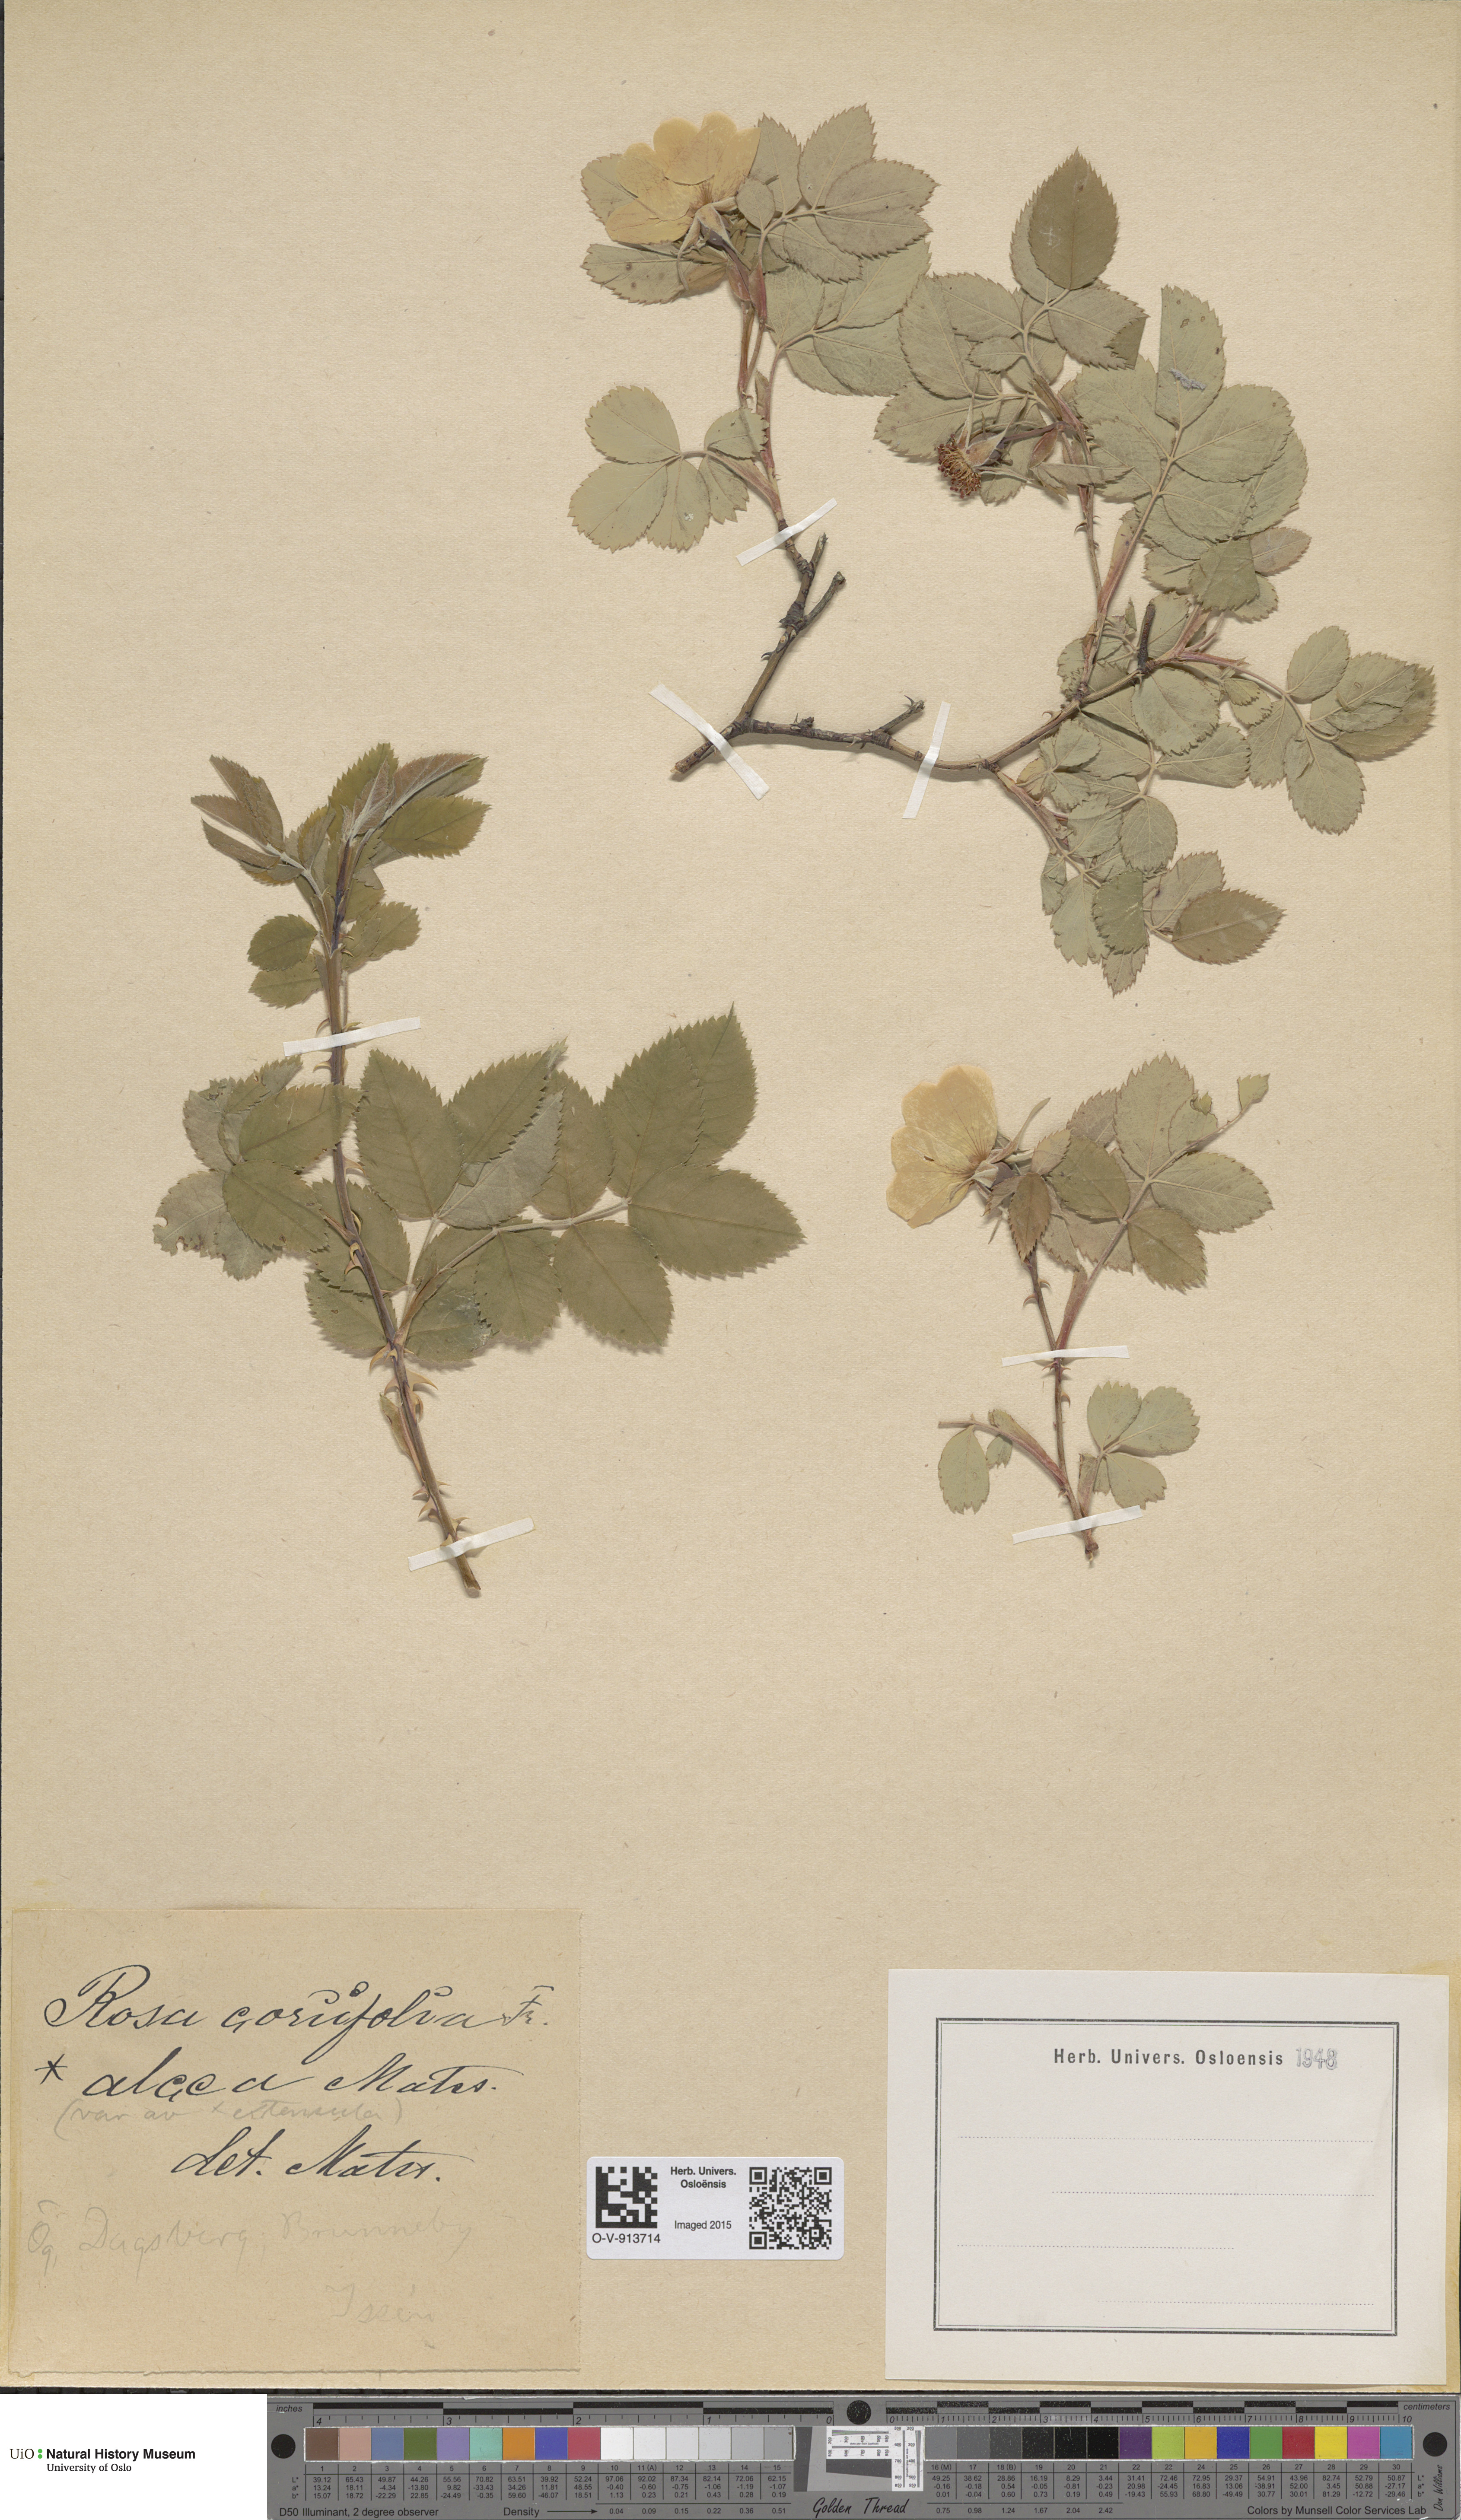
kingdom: Plantae
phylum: Tracheophyta
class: Magnoliopsida
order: Rosales
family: Rosaceae
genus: Rosa
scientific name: Rosa caesia
